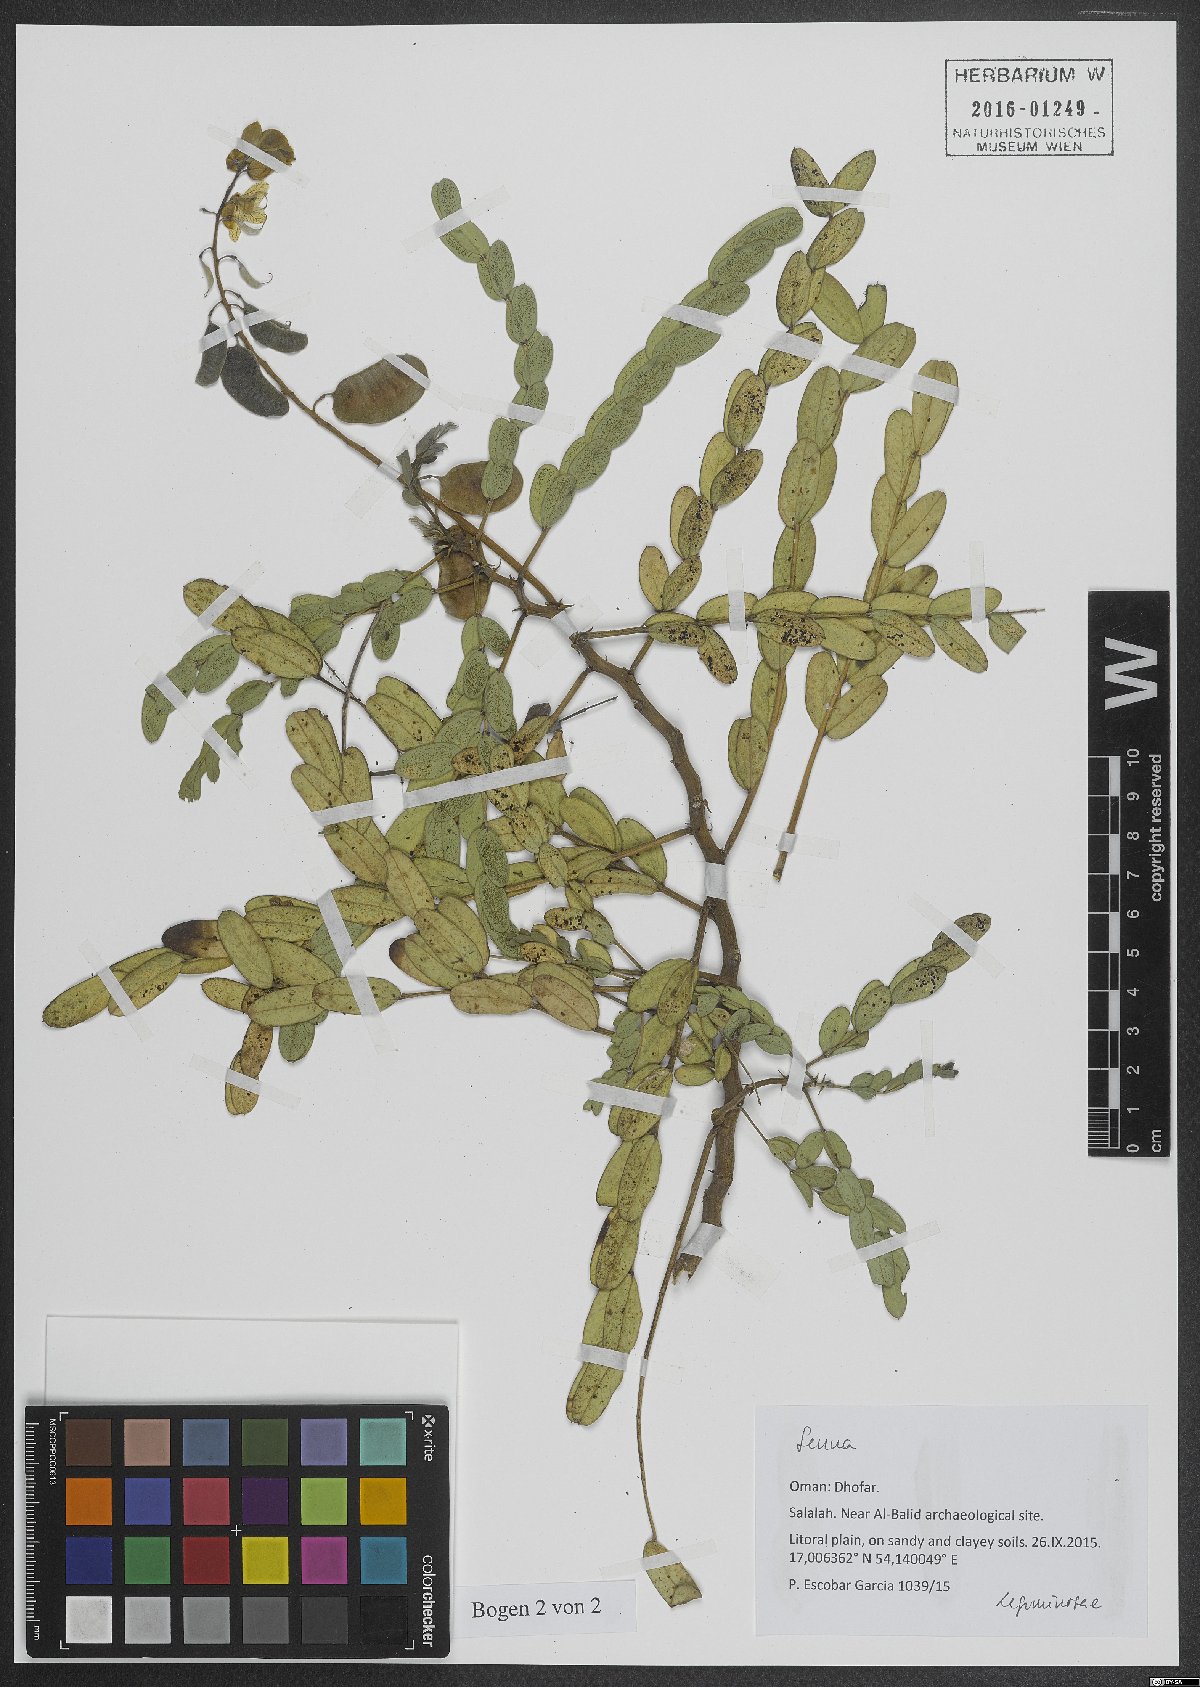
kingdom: Plantae
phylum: Tracheophyta
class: Magnoliopsida
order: Fabales
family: Fabaceae
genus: Senna
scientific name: Senna
